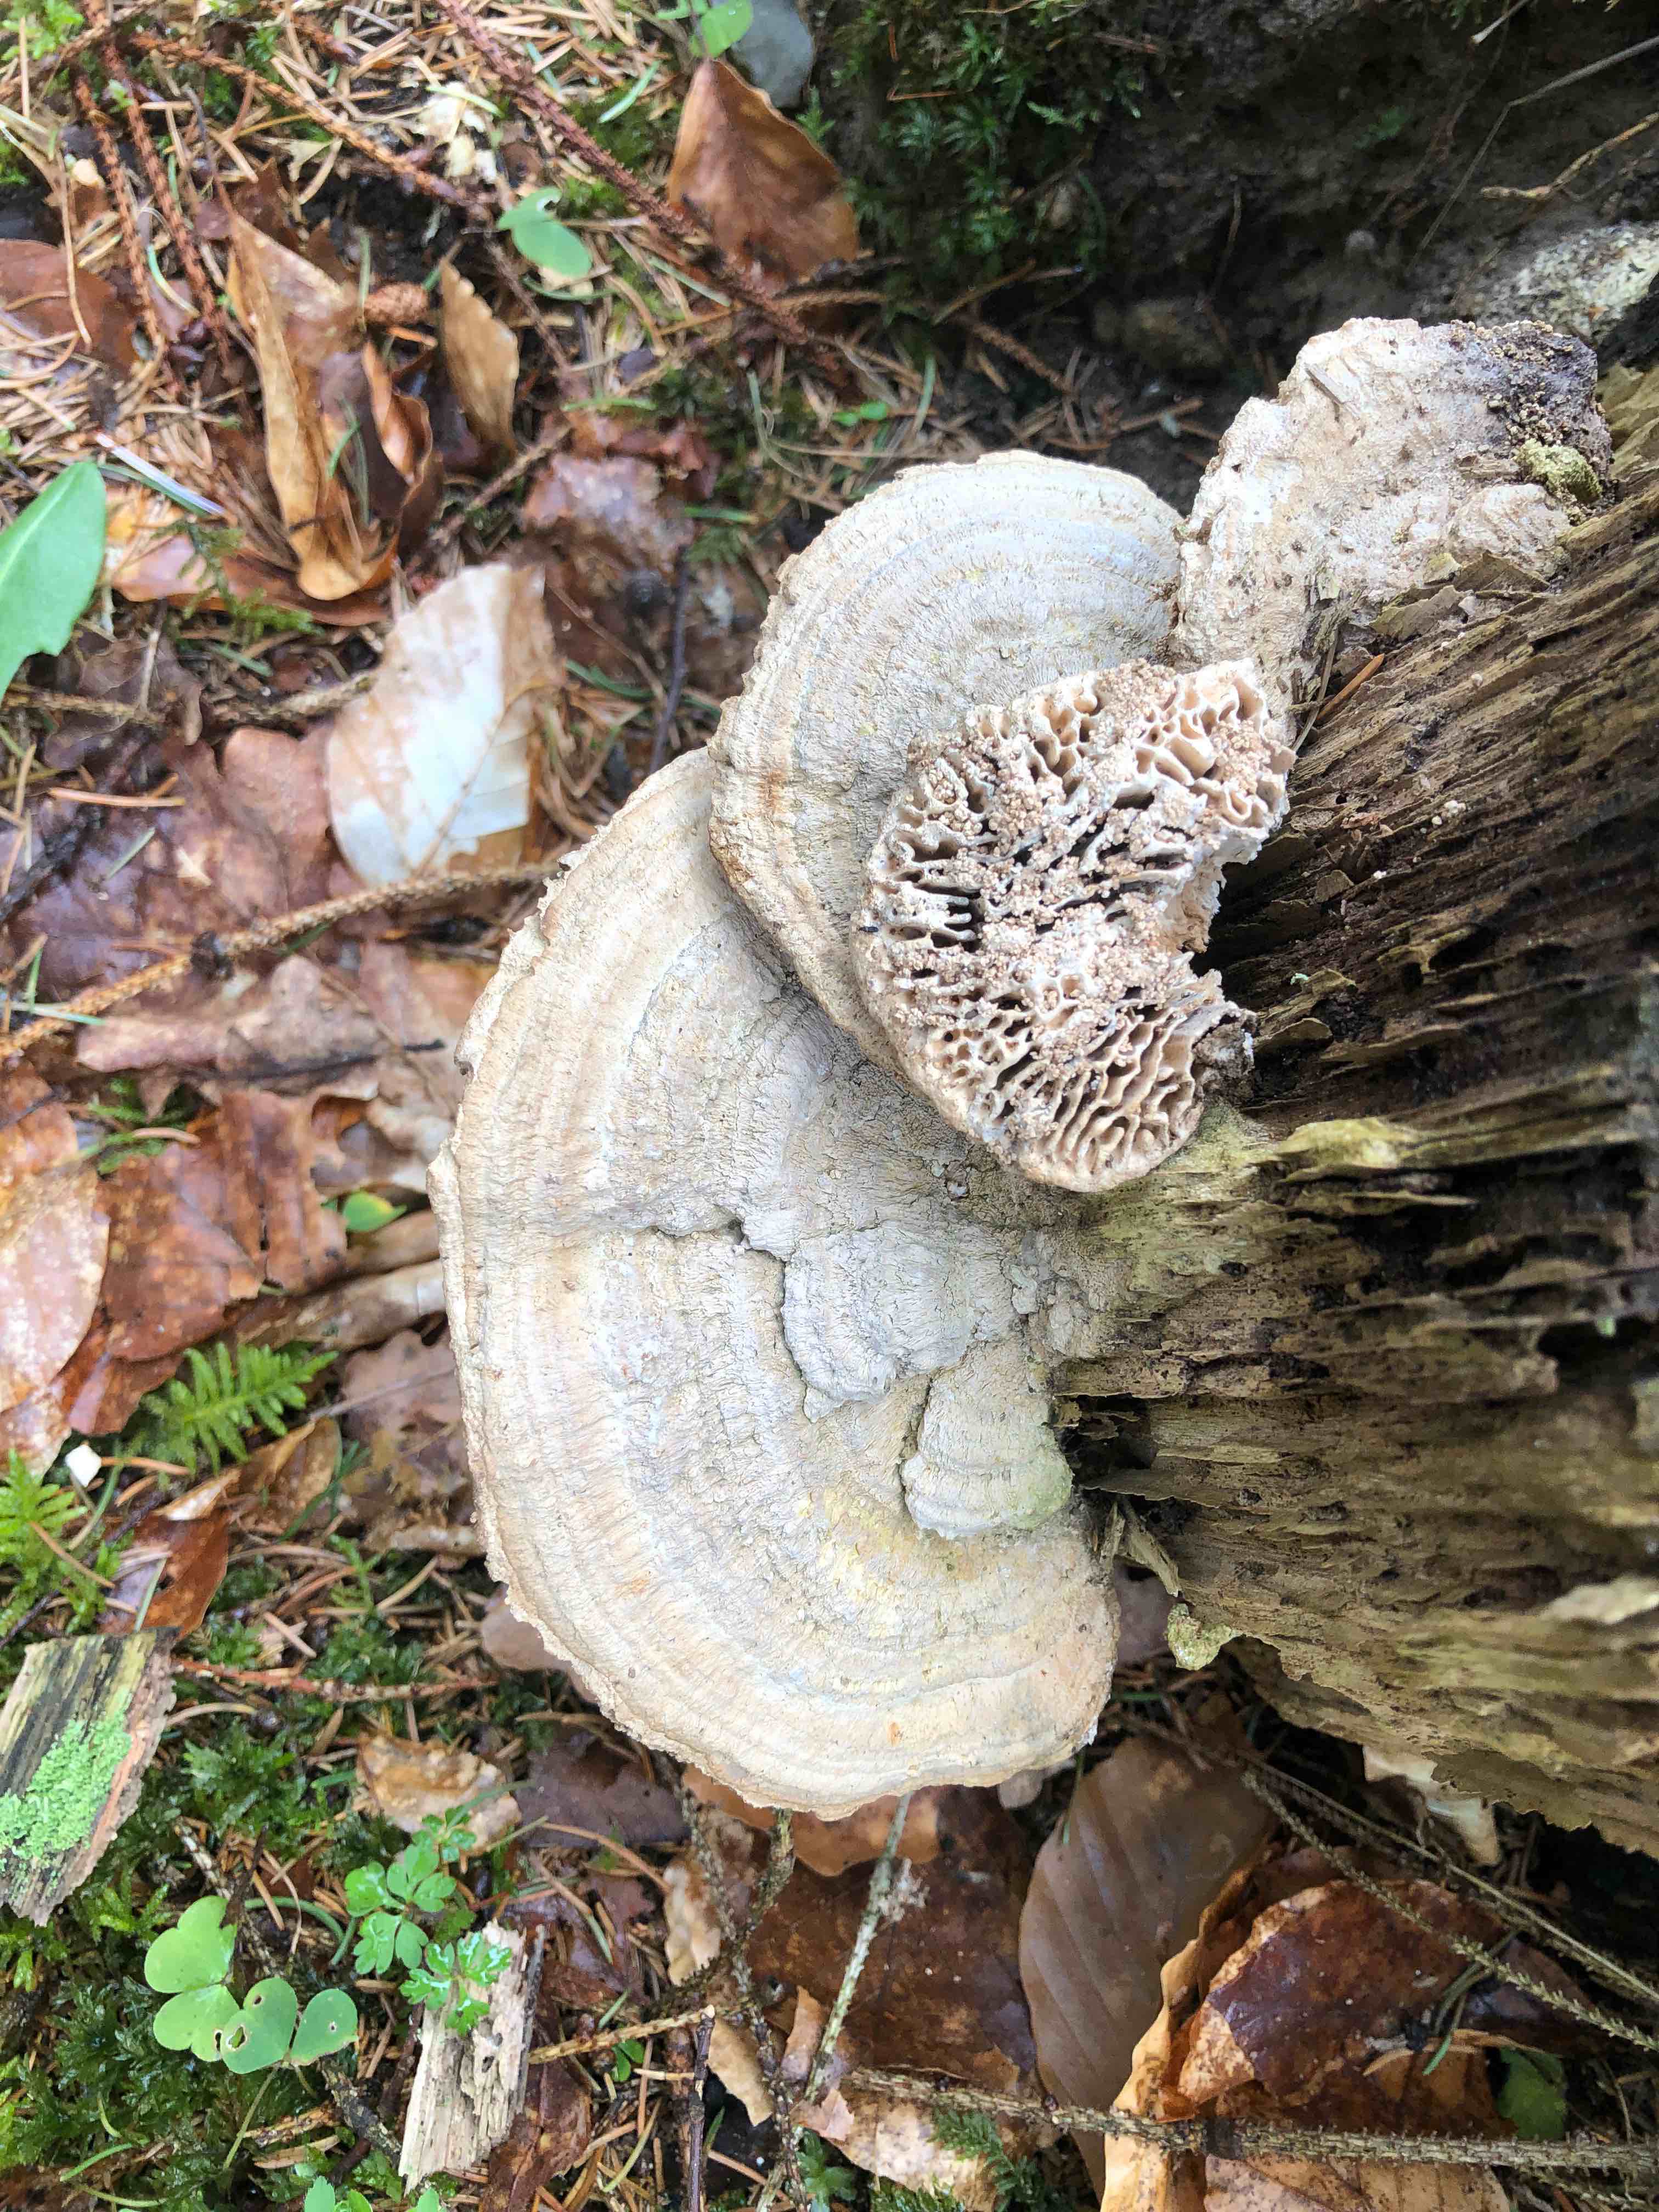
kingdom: Fungi
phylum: Basidiomycota
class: Agaricomycetes
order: Polyporales
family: Fomitopsidaceae
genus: Daedalea
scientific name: Daedalea quercina
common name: ege-labyrintsvamp
